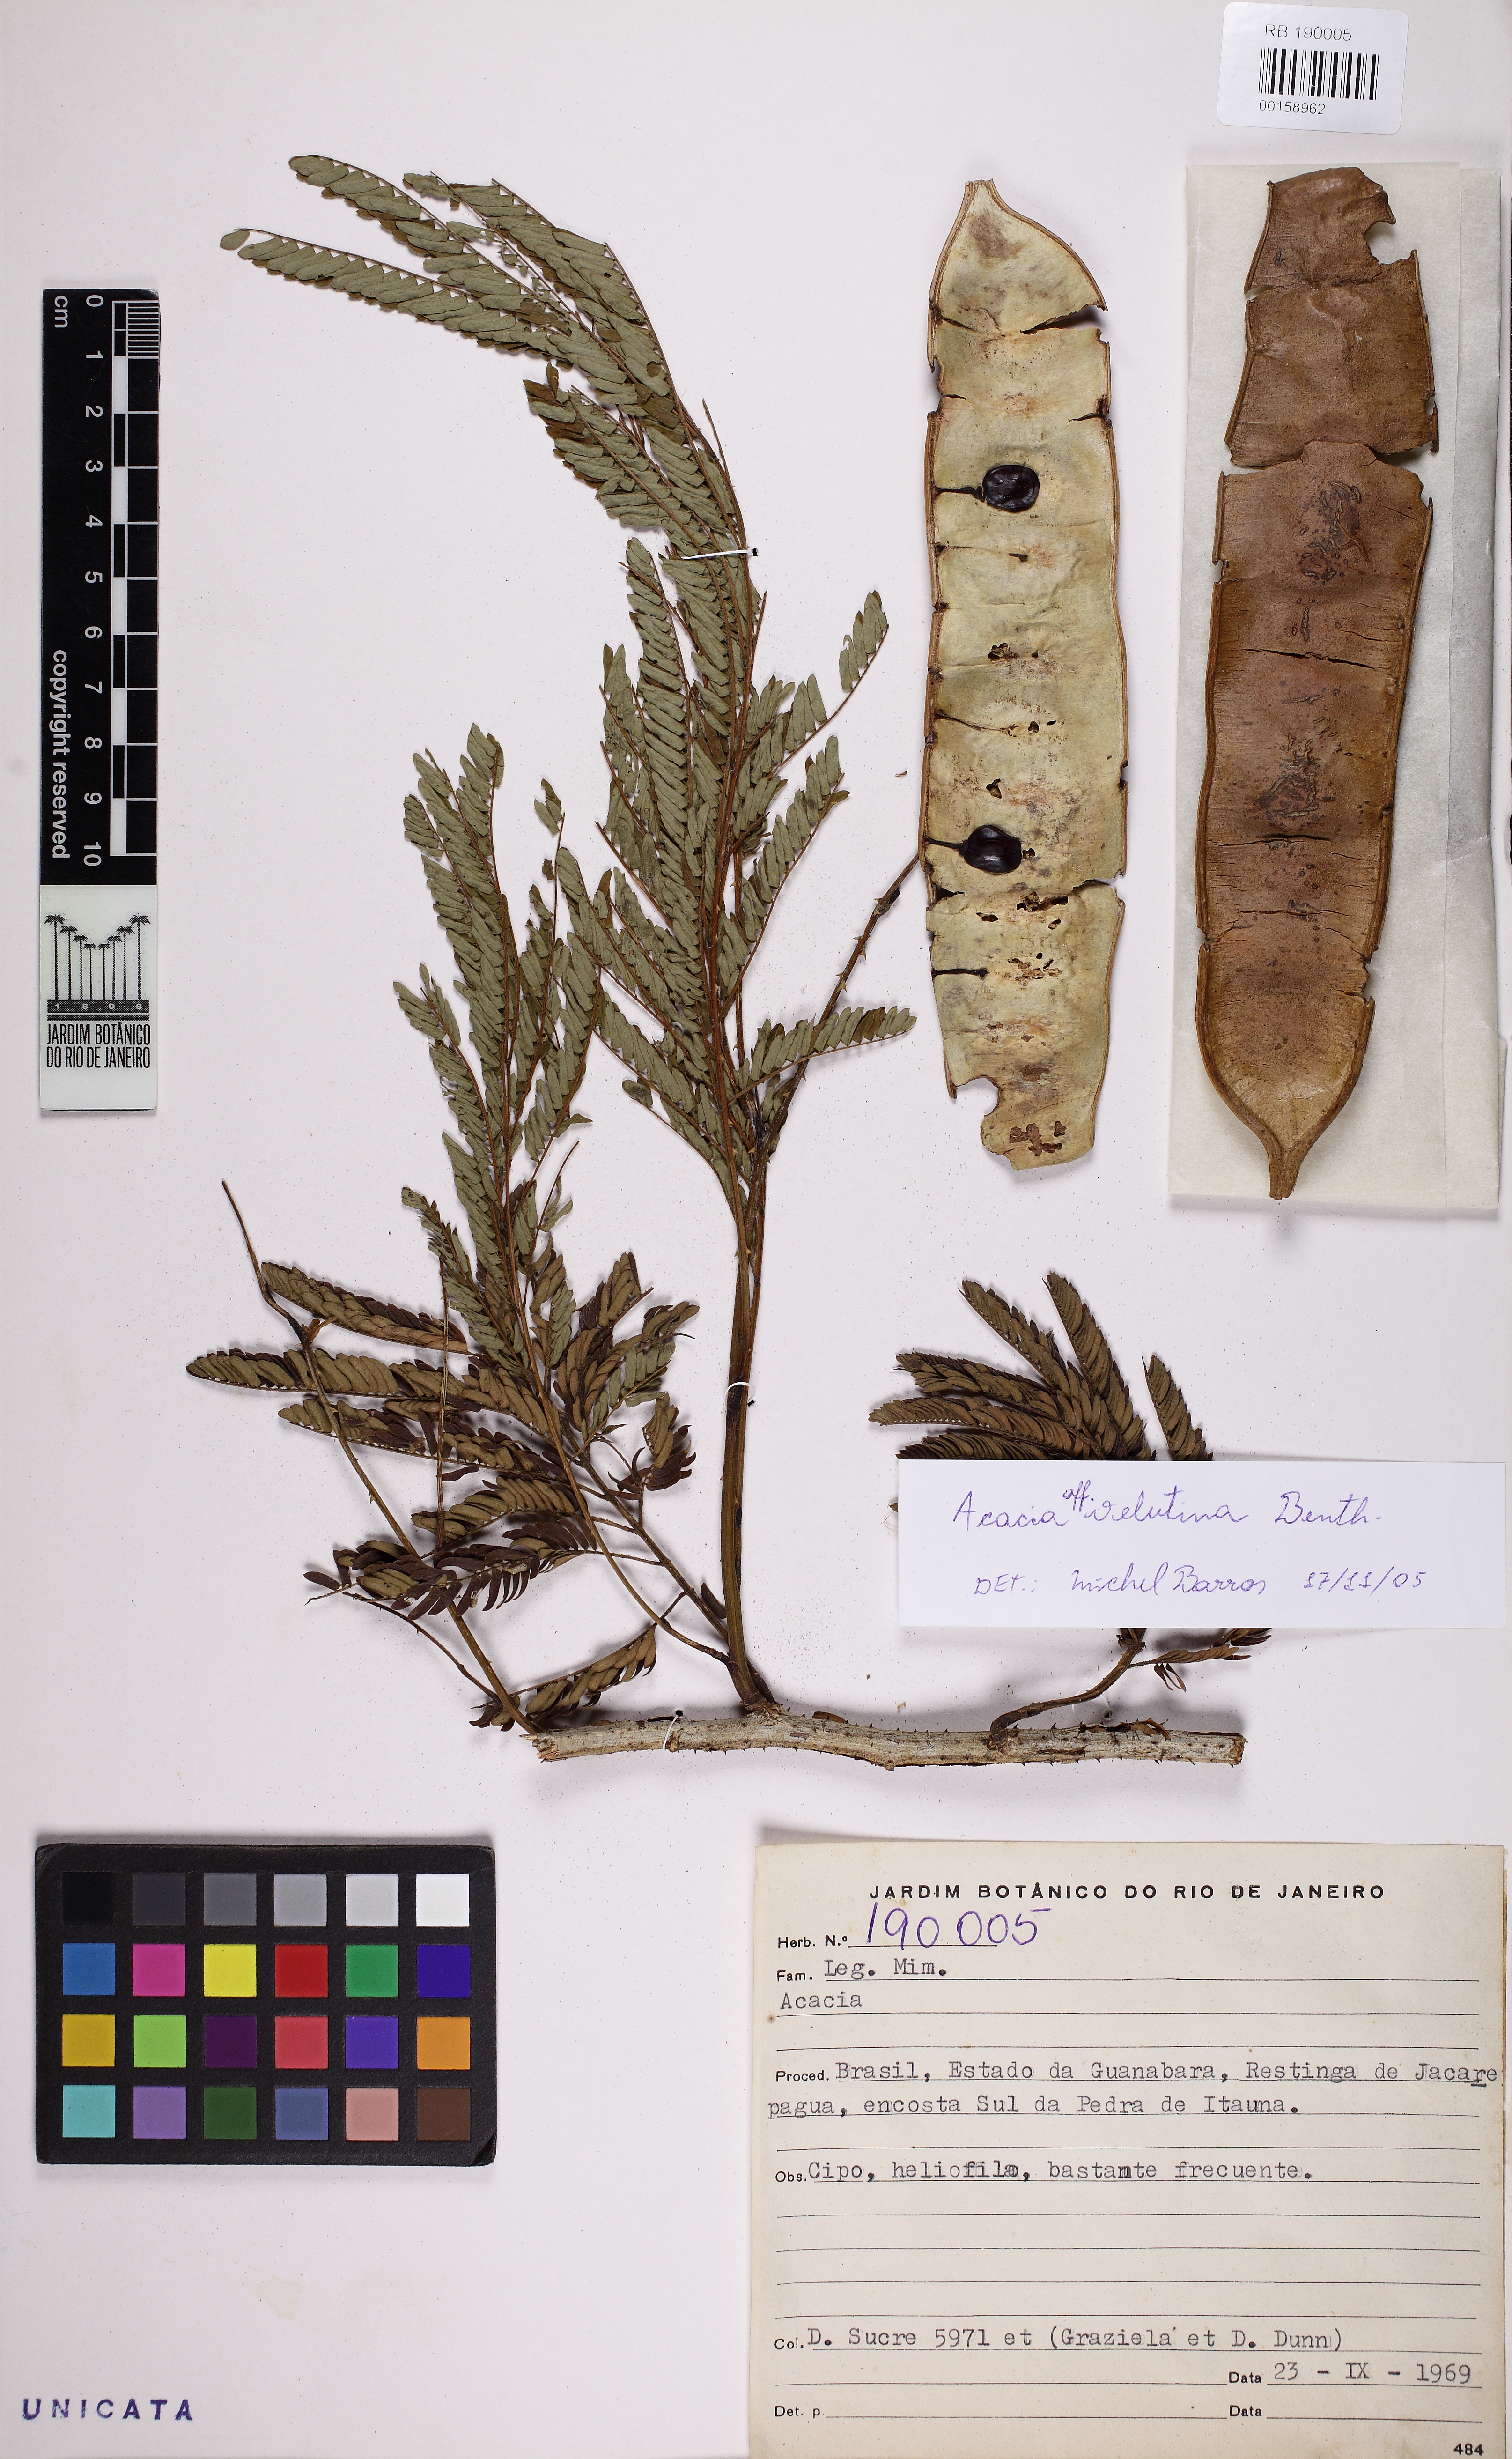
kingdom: Plantae
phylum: Tracheophyta
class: Magnoliopsida
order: Fabales
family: Fabaceae
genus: Senegalia
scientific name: Senegalia monacantha
